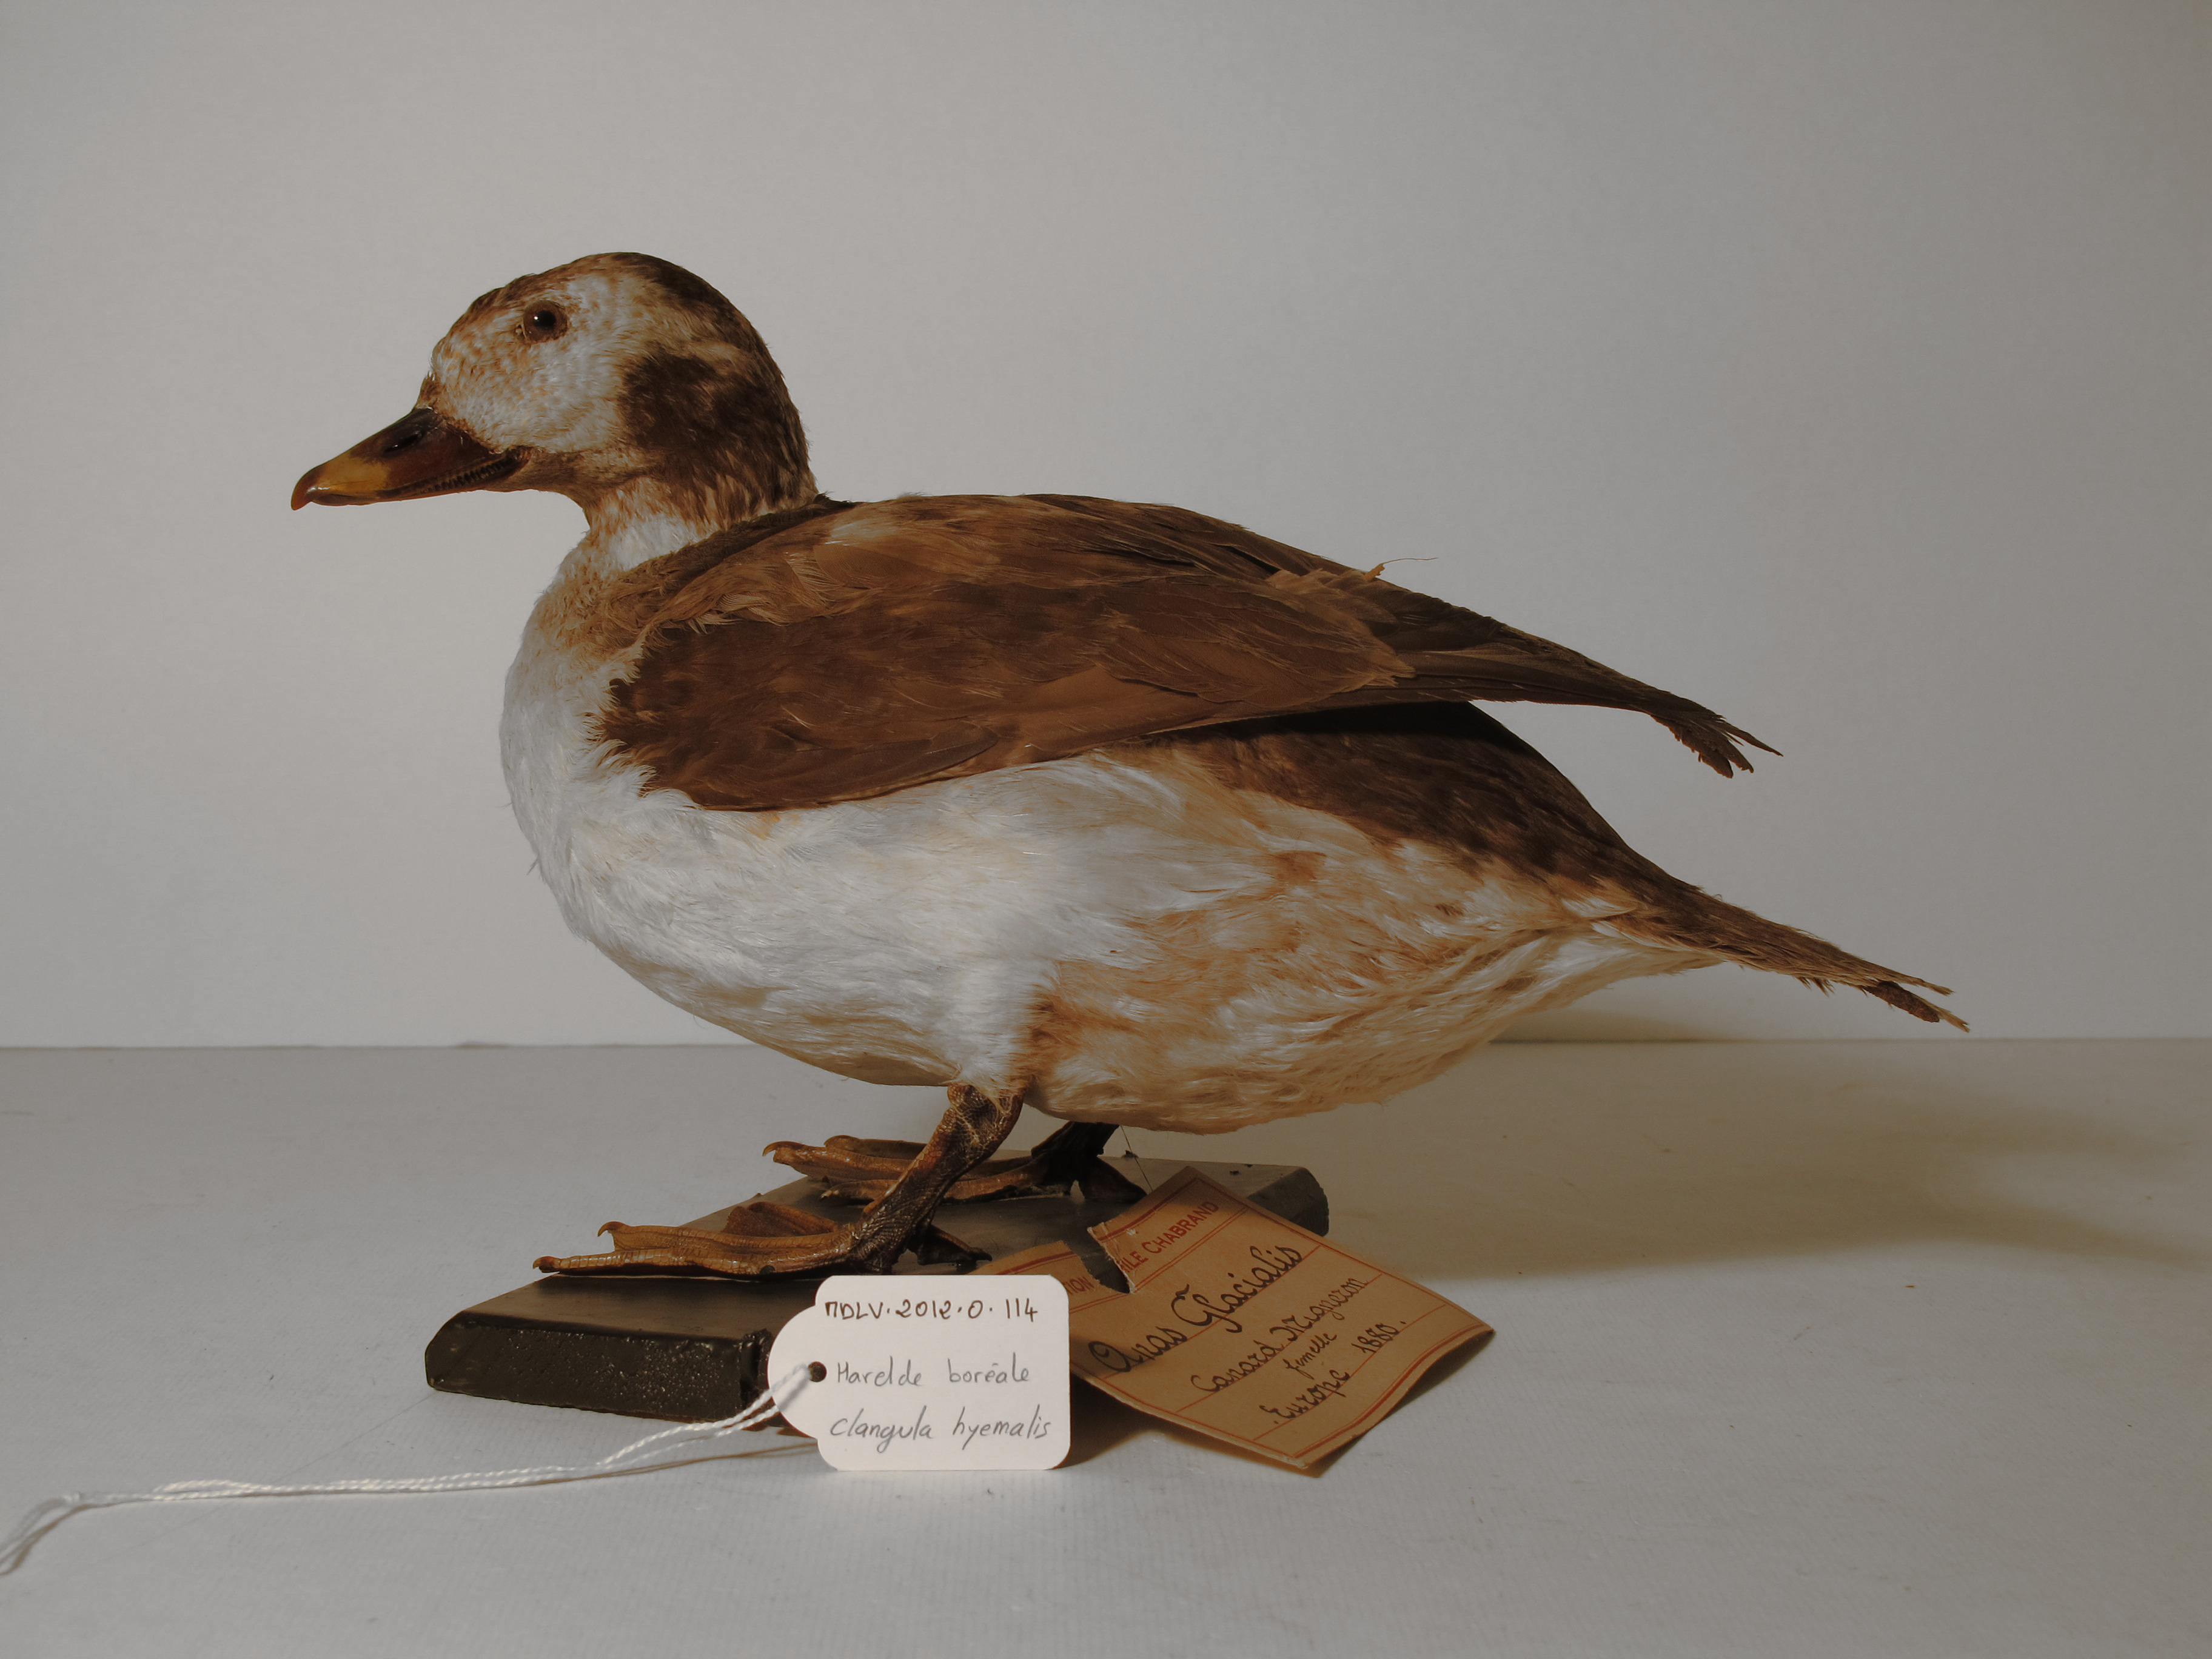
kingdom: Animalia
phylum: Chordata
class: Aves
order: Anseriformes
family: Anatidae
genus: Clangula
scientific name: Clangula hyemalis
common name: Long-tailed Duck
